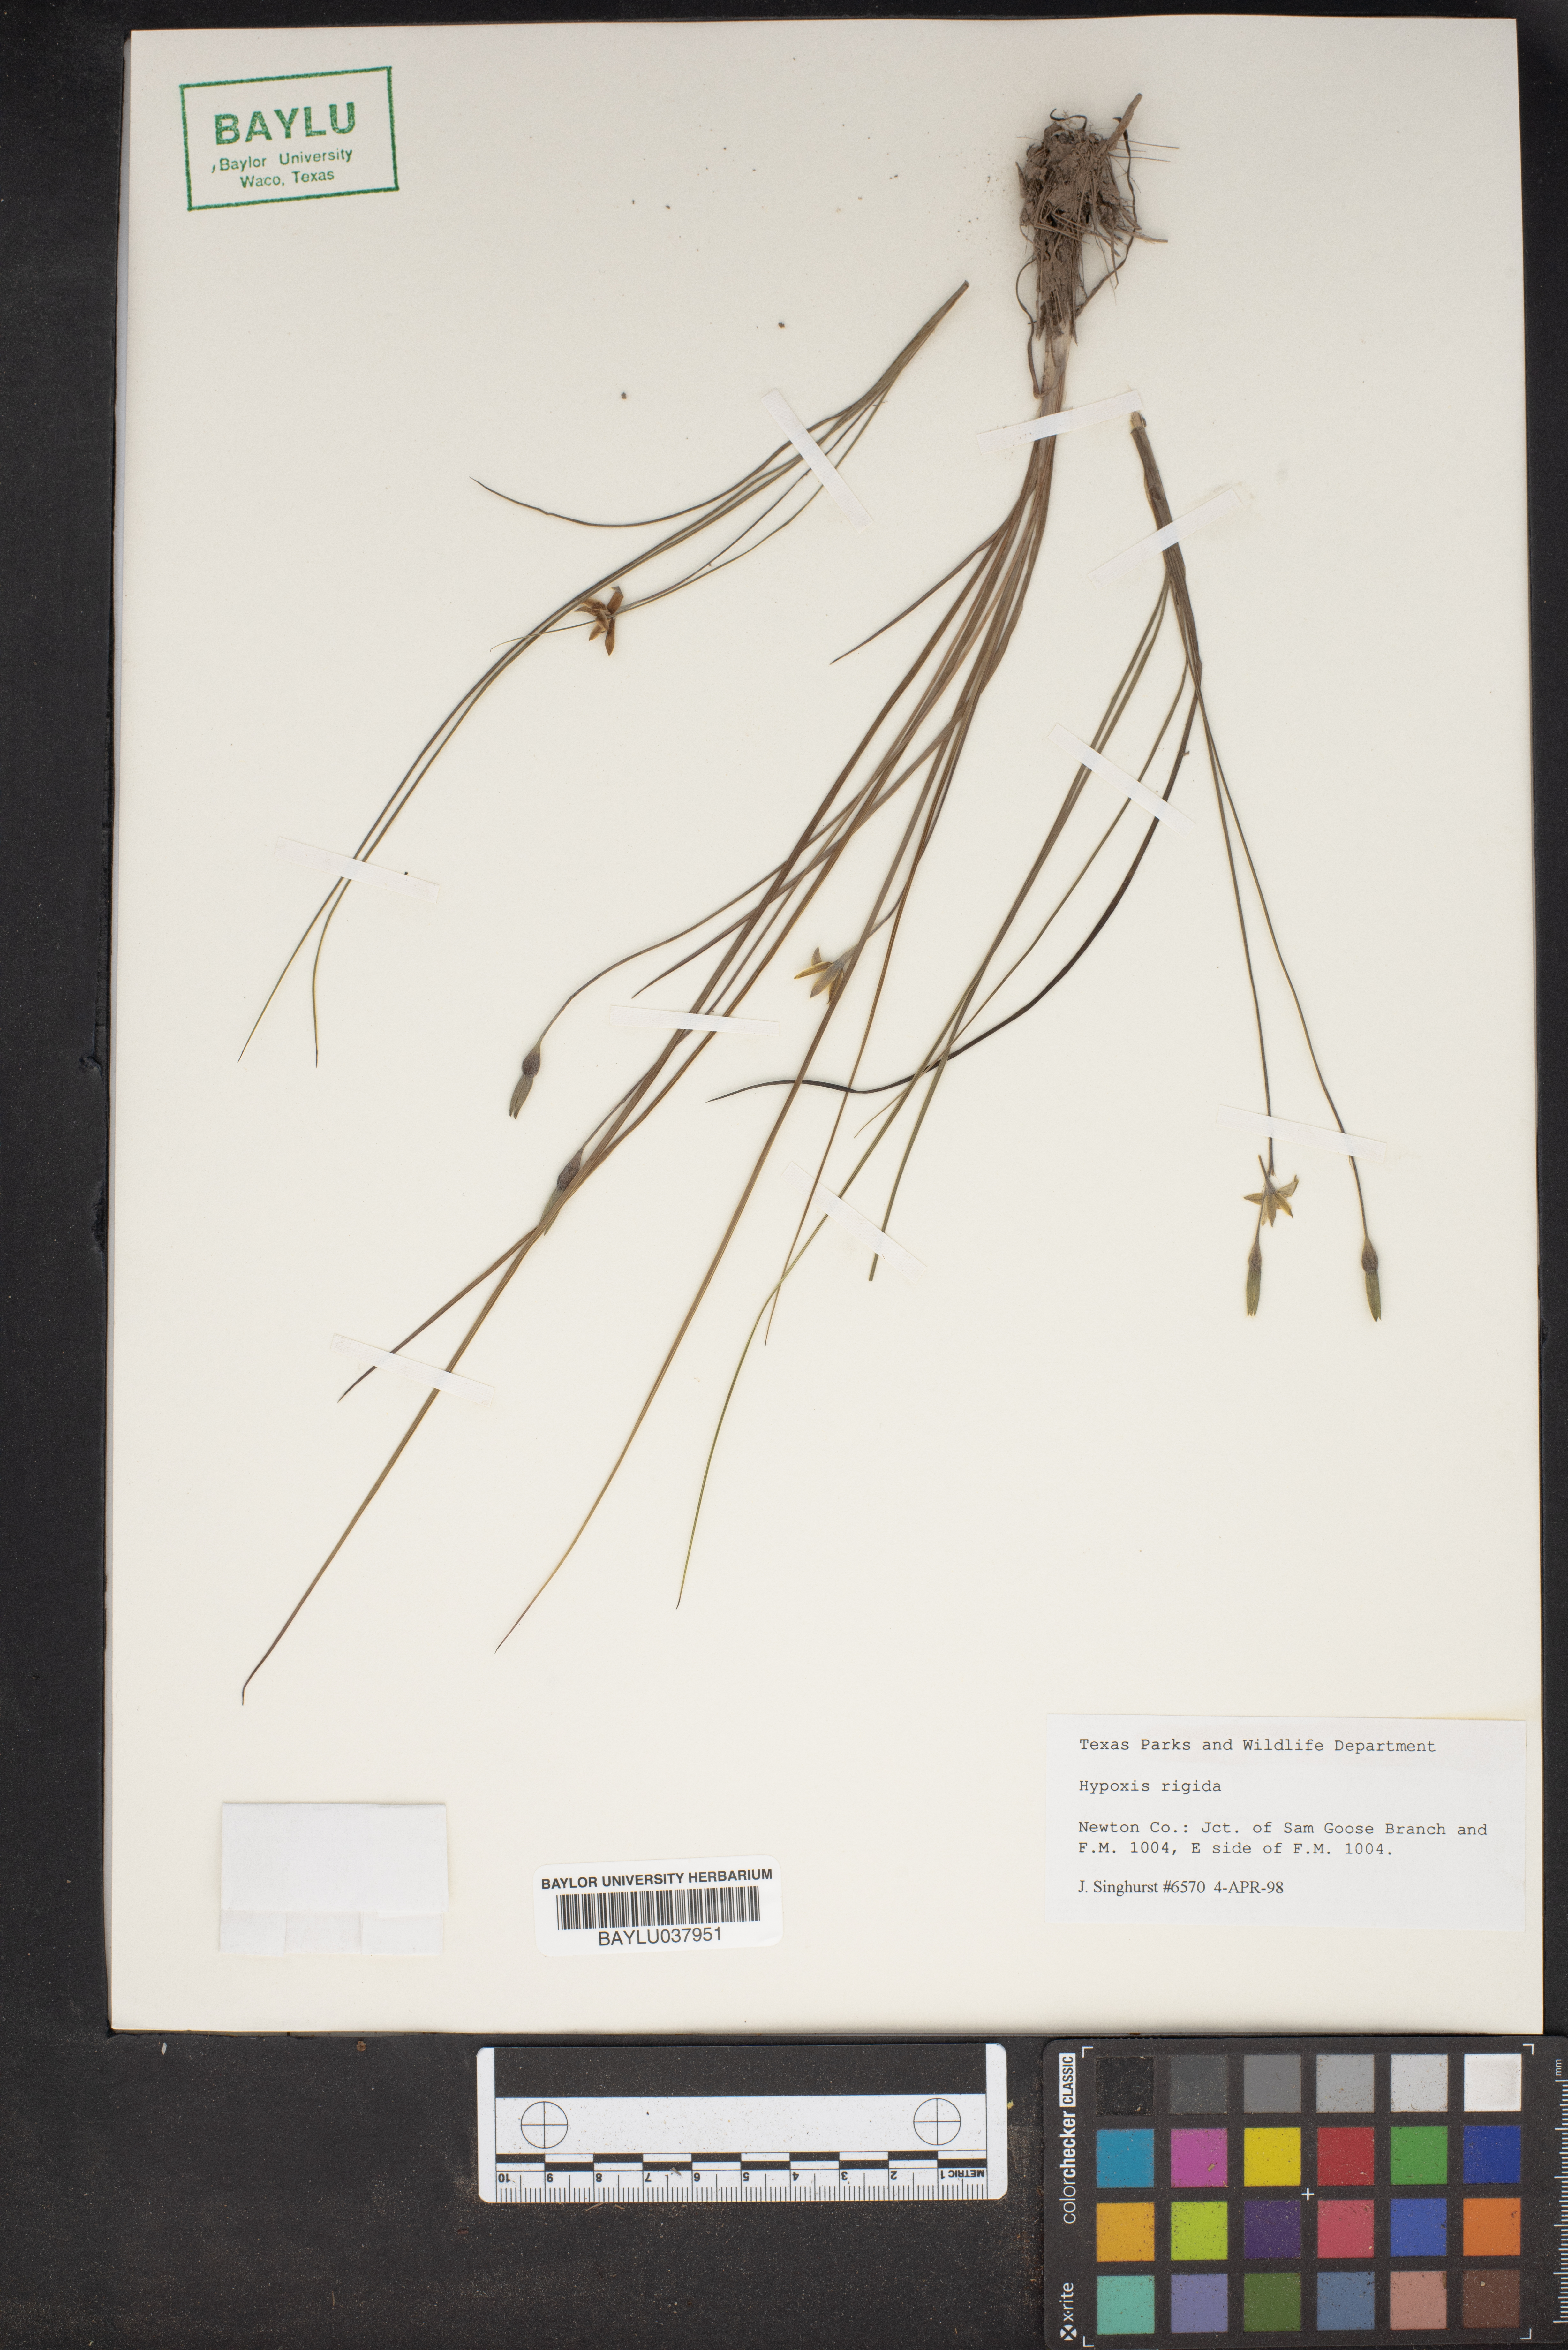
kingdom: Plantae
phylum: Tracheophyta
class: Liliopsida
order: Asparagales
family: Hypoxidaceae
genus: Hypoxis
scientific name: Hypoxis rigida
